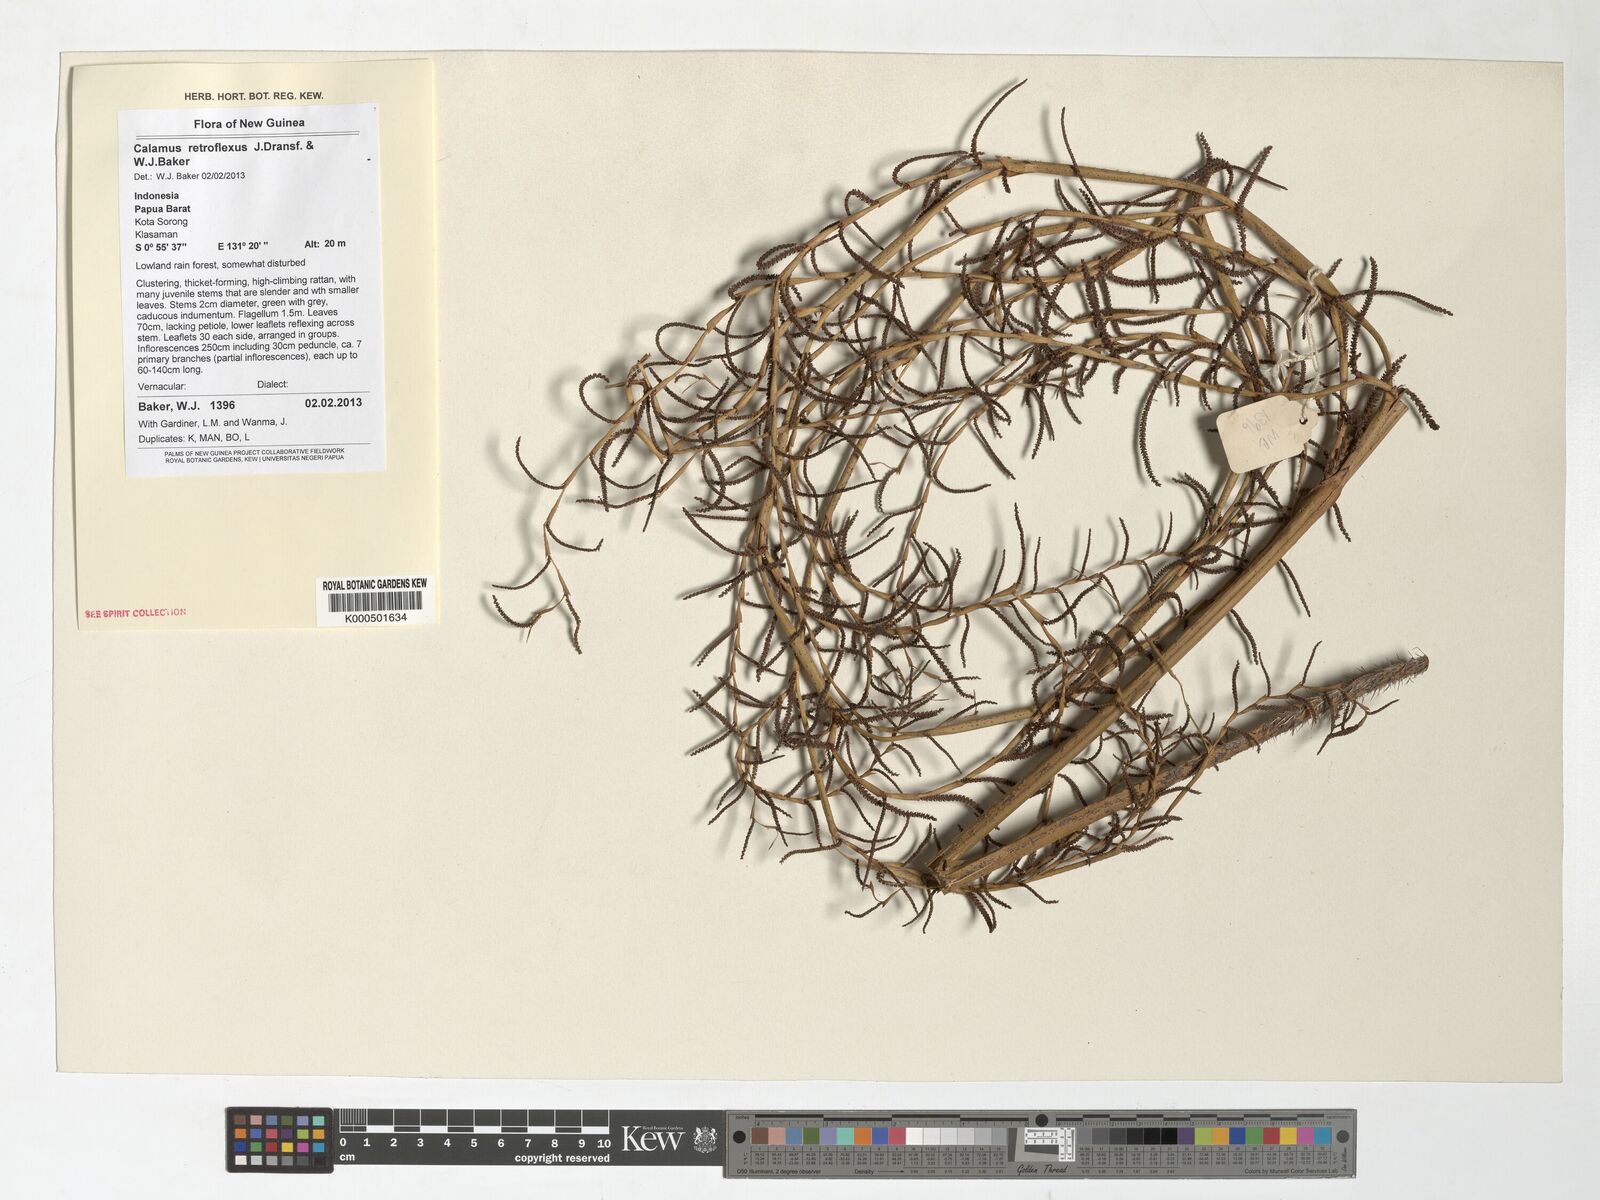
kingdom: Plantae
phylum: Tracheophyta
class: Liliopsida
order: Arecales
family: Arecaceae
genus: Calamus
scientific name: Calamus retroflexus
